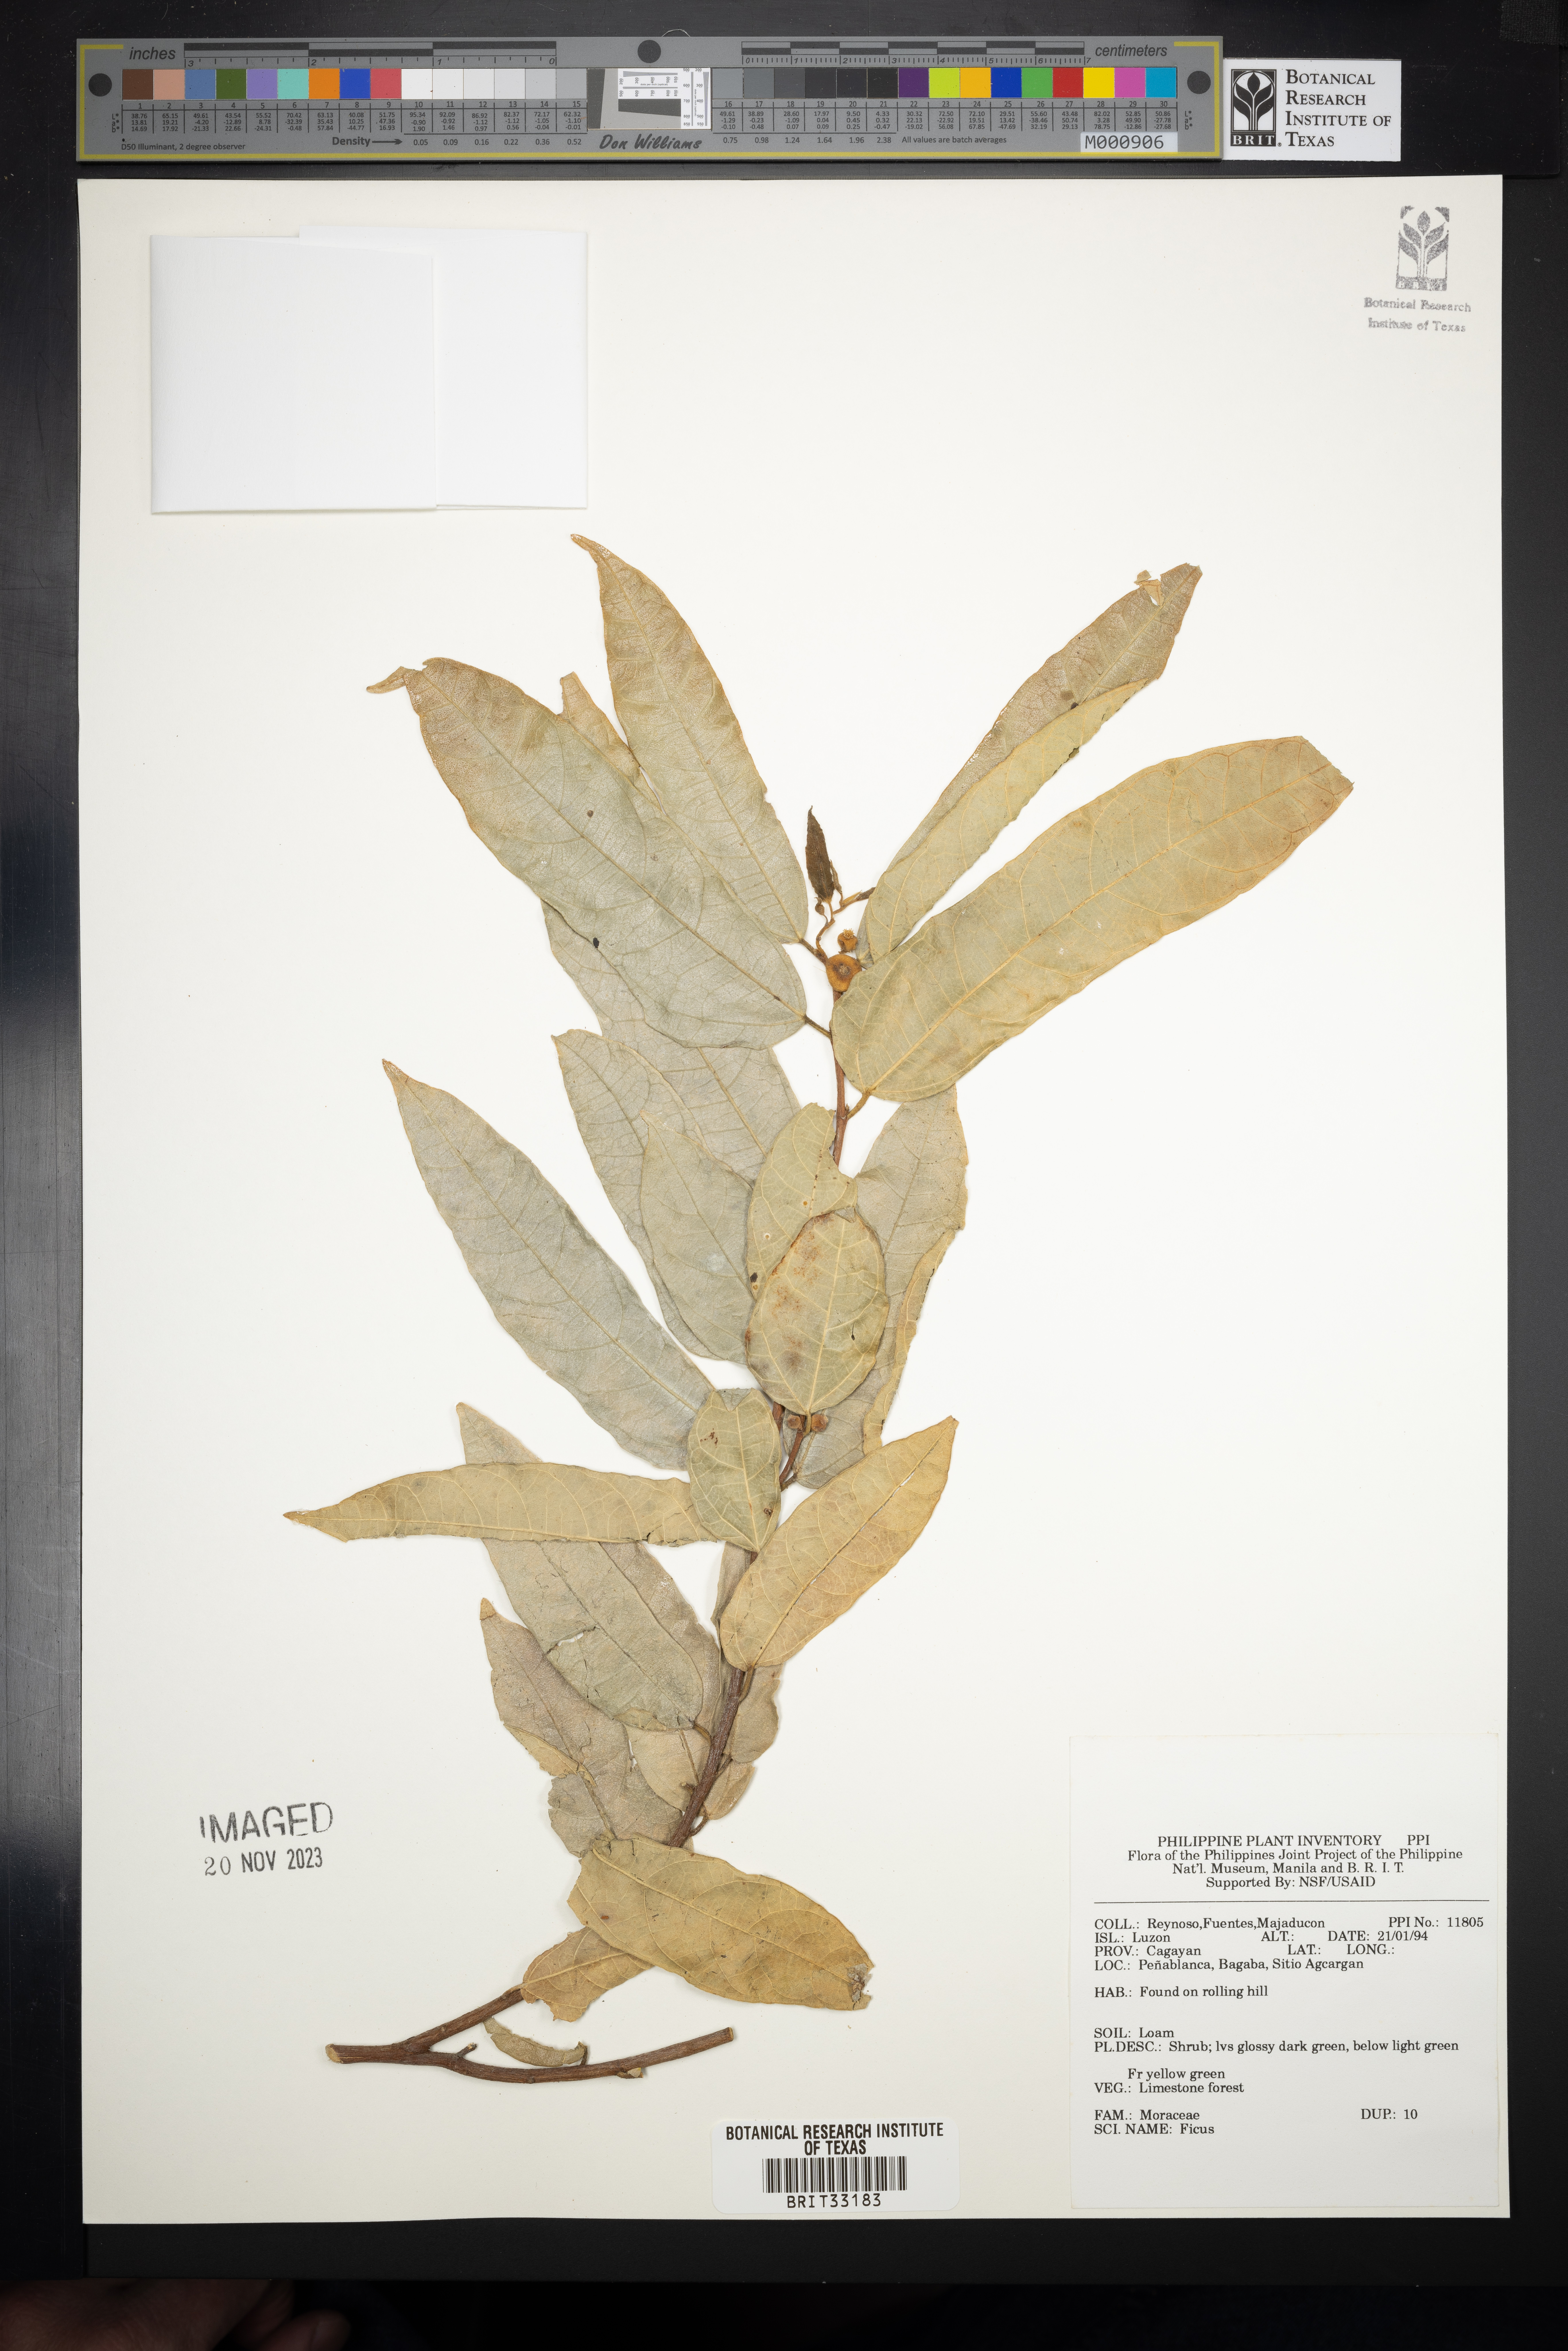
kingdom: Plantae
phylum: Tracheophyta
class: Magnoliopsida
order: Rosales
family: Moraceae
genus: Ficus
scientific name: Ficus
